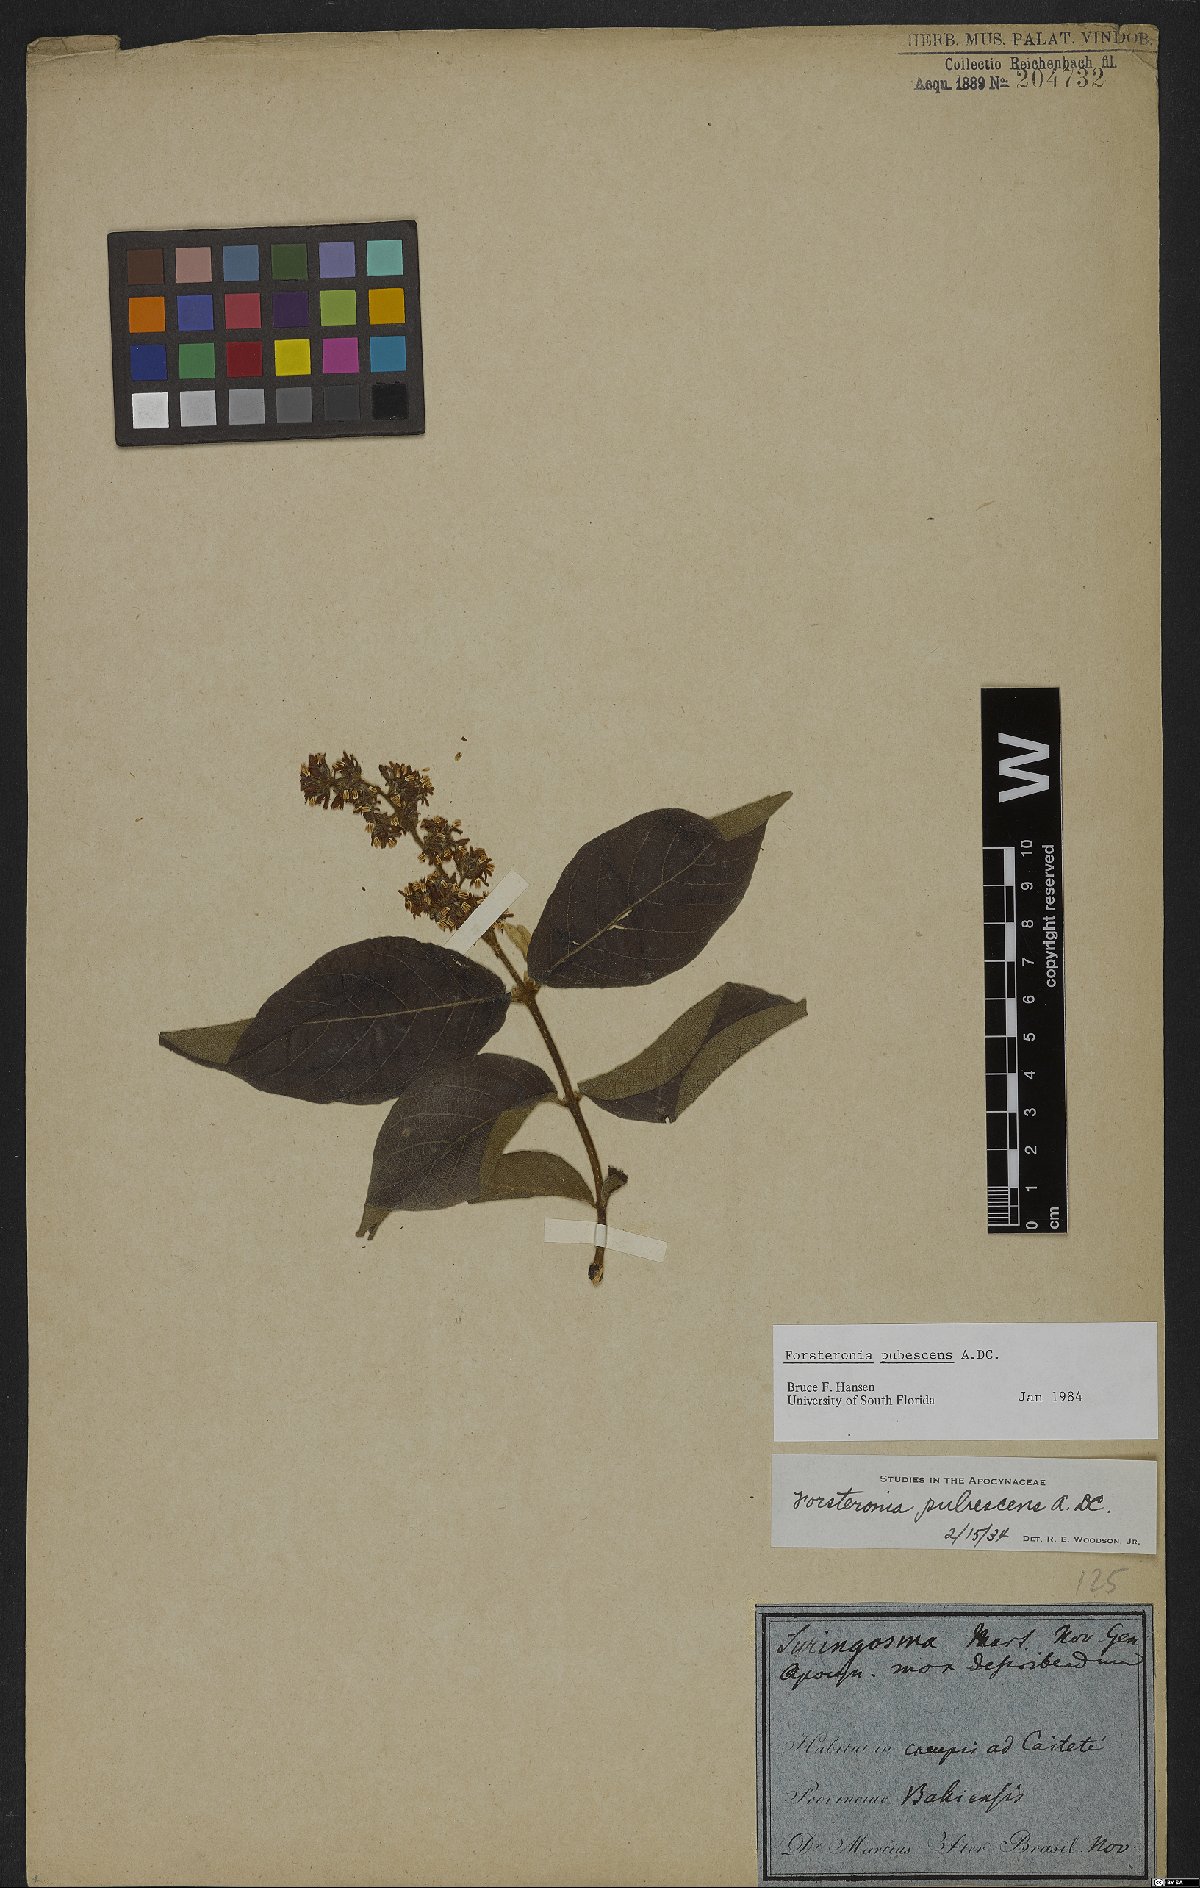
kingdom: Plantae
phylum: Tracheophyta
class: Magnoliopsida
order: Gentianales
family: Apocynaceae
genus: Forsteronia
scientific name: Forsteronia pubescens
